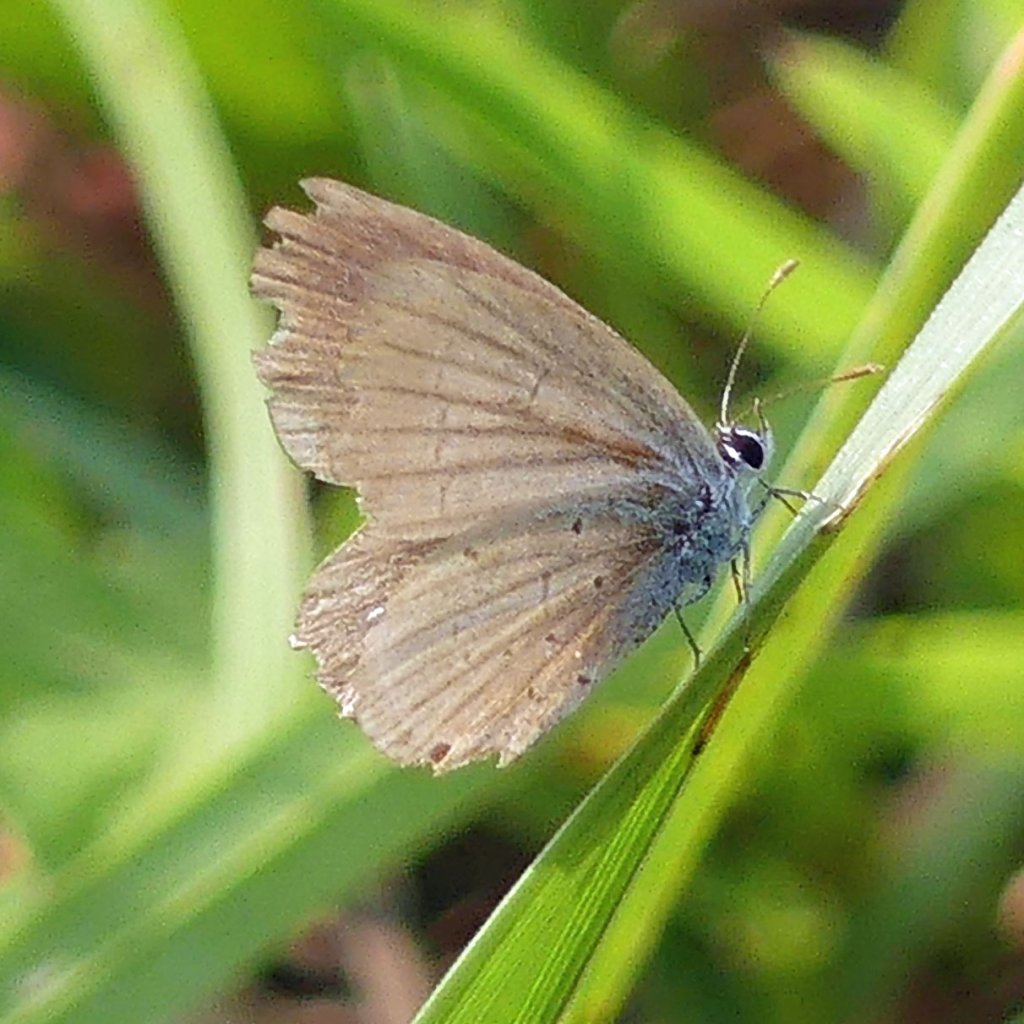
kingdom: Animalia
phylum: Arthropoda
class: Insecta
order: Lepidoptera
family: Lycaenidae
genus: Celastrina
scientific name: Celastrina
